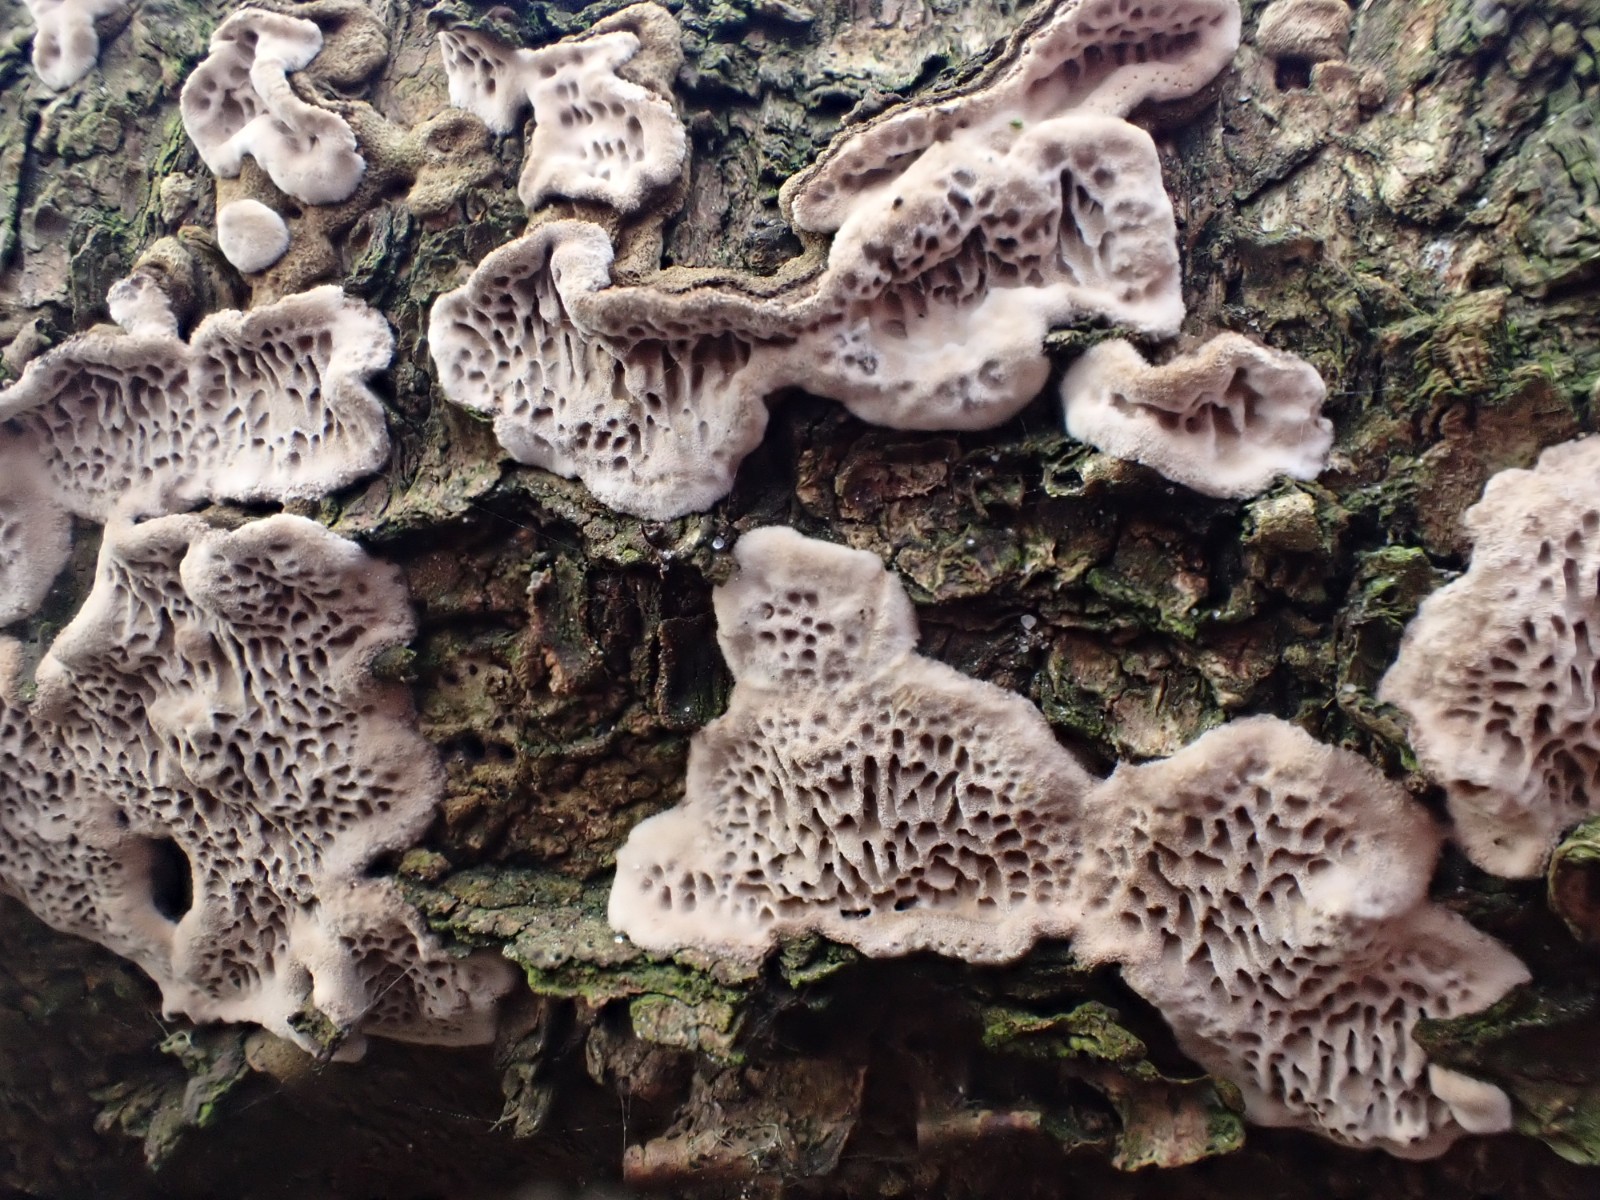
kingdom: Fungi
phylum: Basidiomycota
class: Agaricomycetes
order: Polyporales
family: Polyporaceae
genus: Podofomes
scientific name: Podofomes mollis
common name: blød begporesvamp
